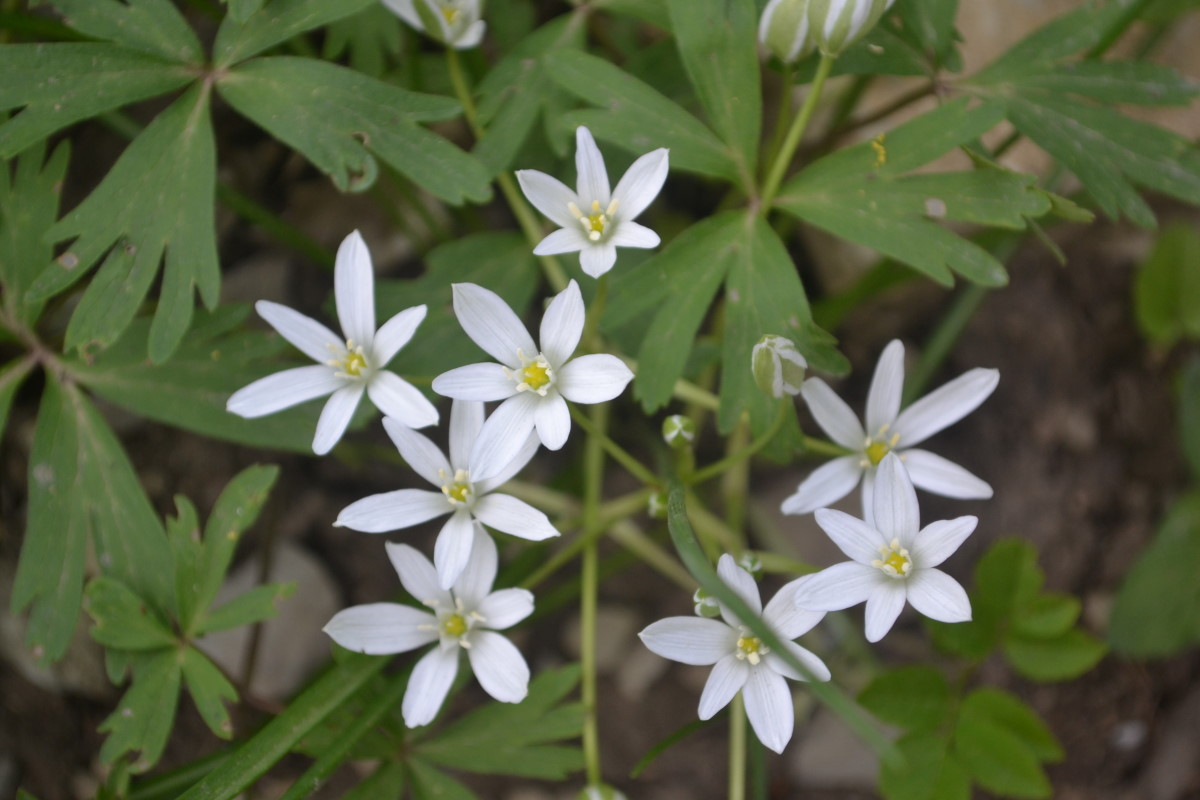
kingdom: Plantae
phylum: Tracheophyta
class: Liliopsida
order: Asparagales
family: Asparagaceae
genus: Ornithogalum
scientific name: Ornithogalum ponticum
